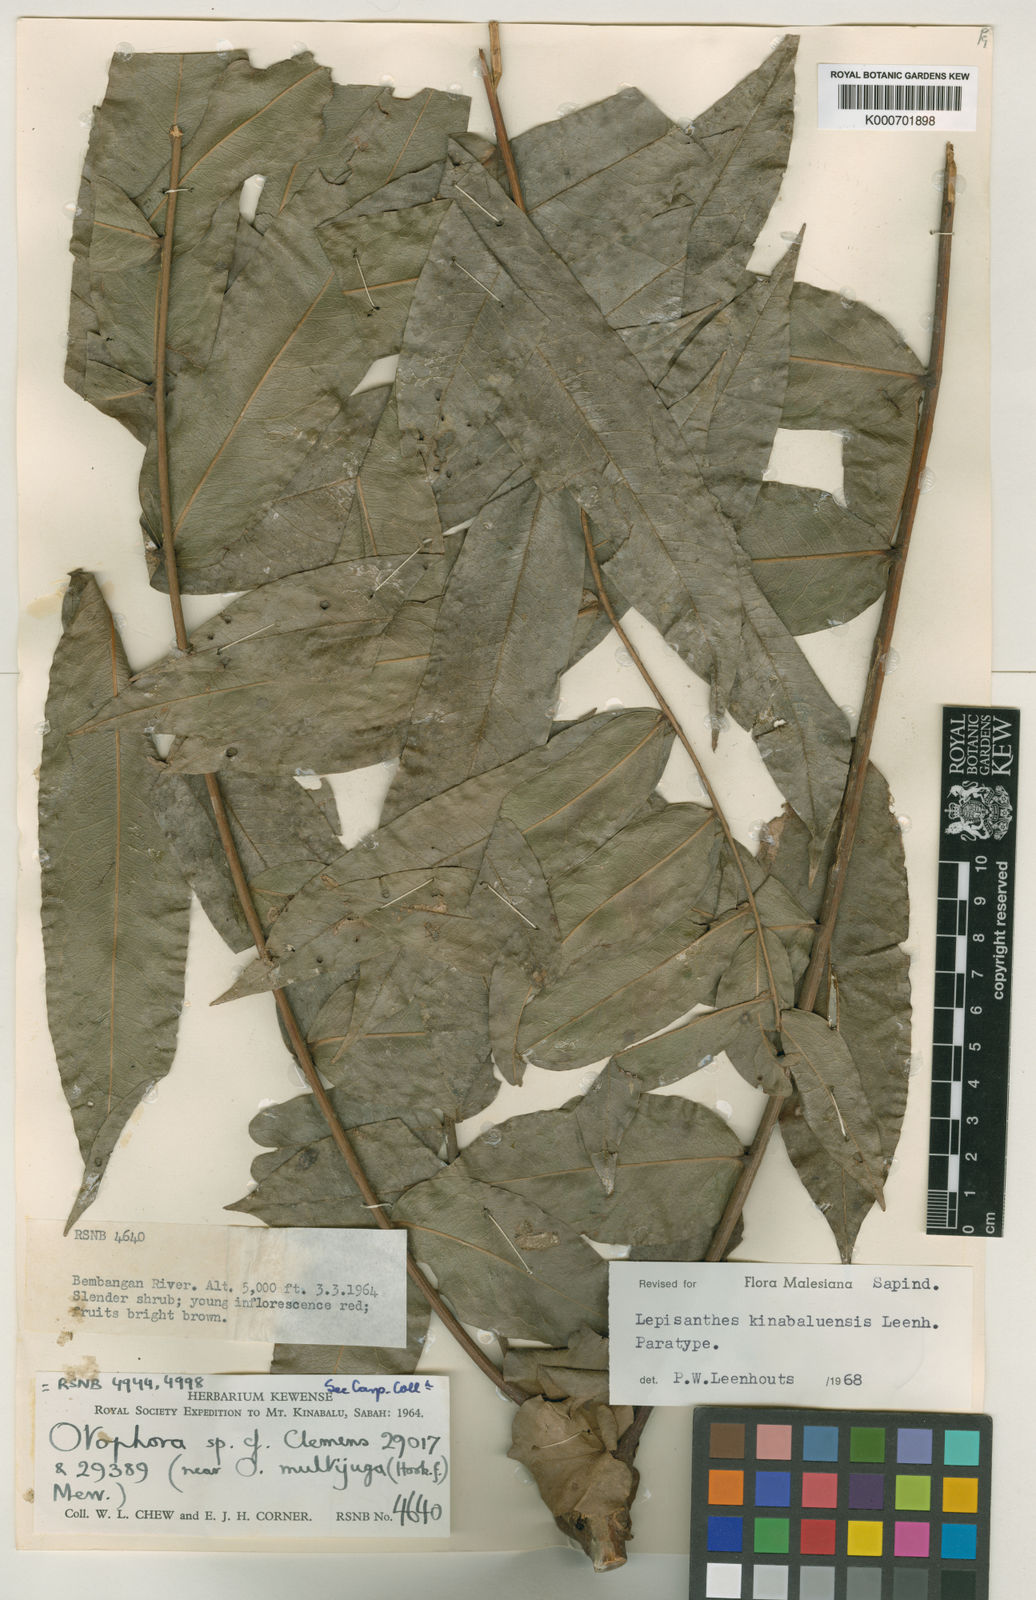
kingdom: Plantae
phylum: Tracheophyta
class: Magnoliopsida
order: Sapindales
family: Sapindaceae
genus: Lepisanthes
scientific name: Lepisanthes kinabaluensis
